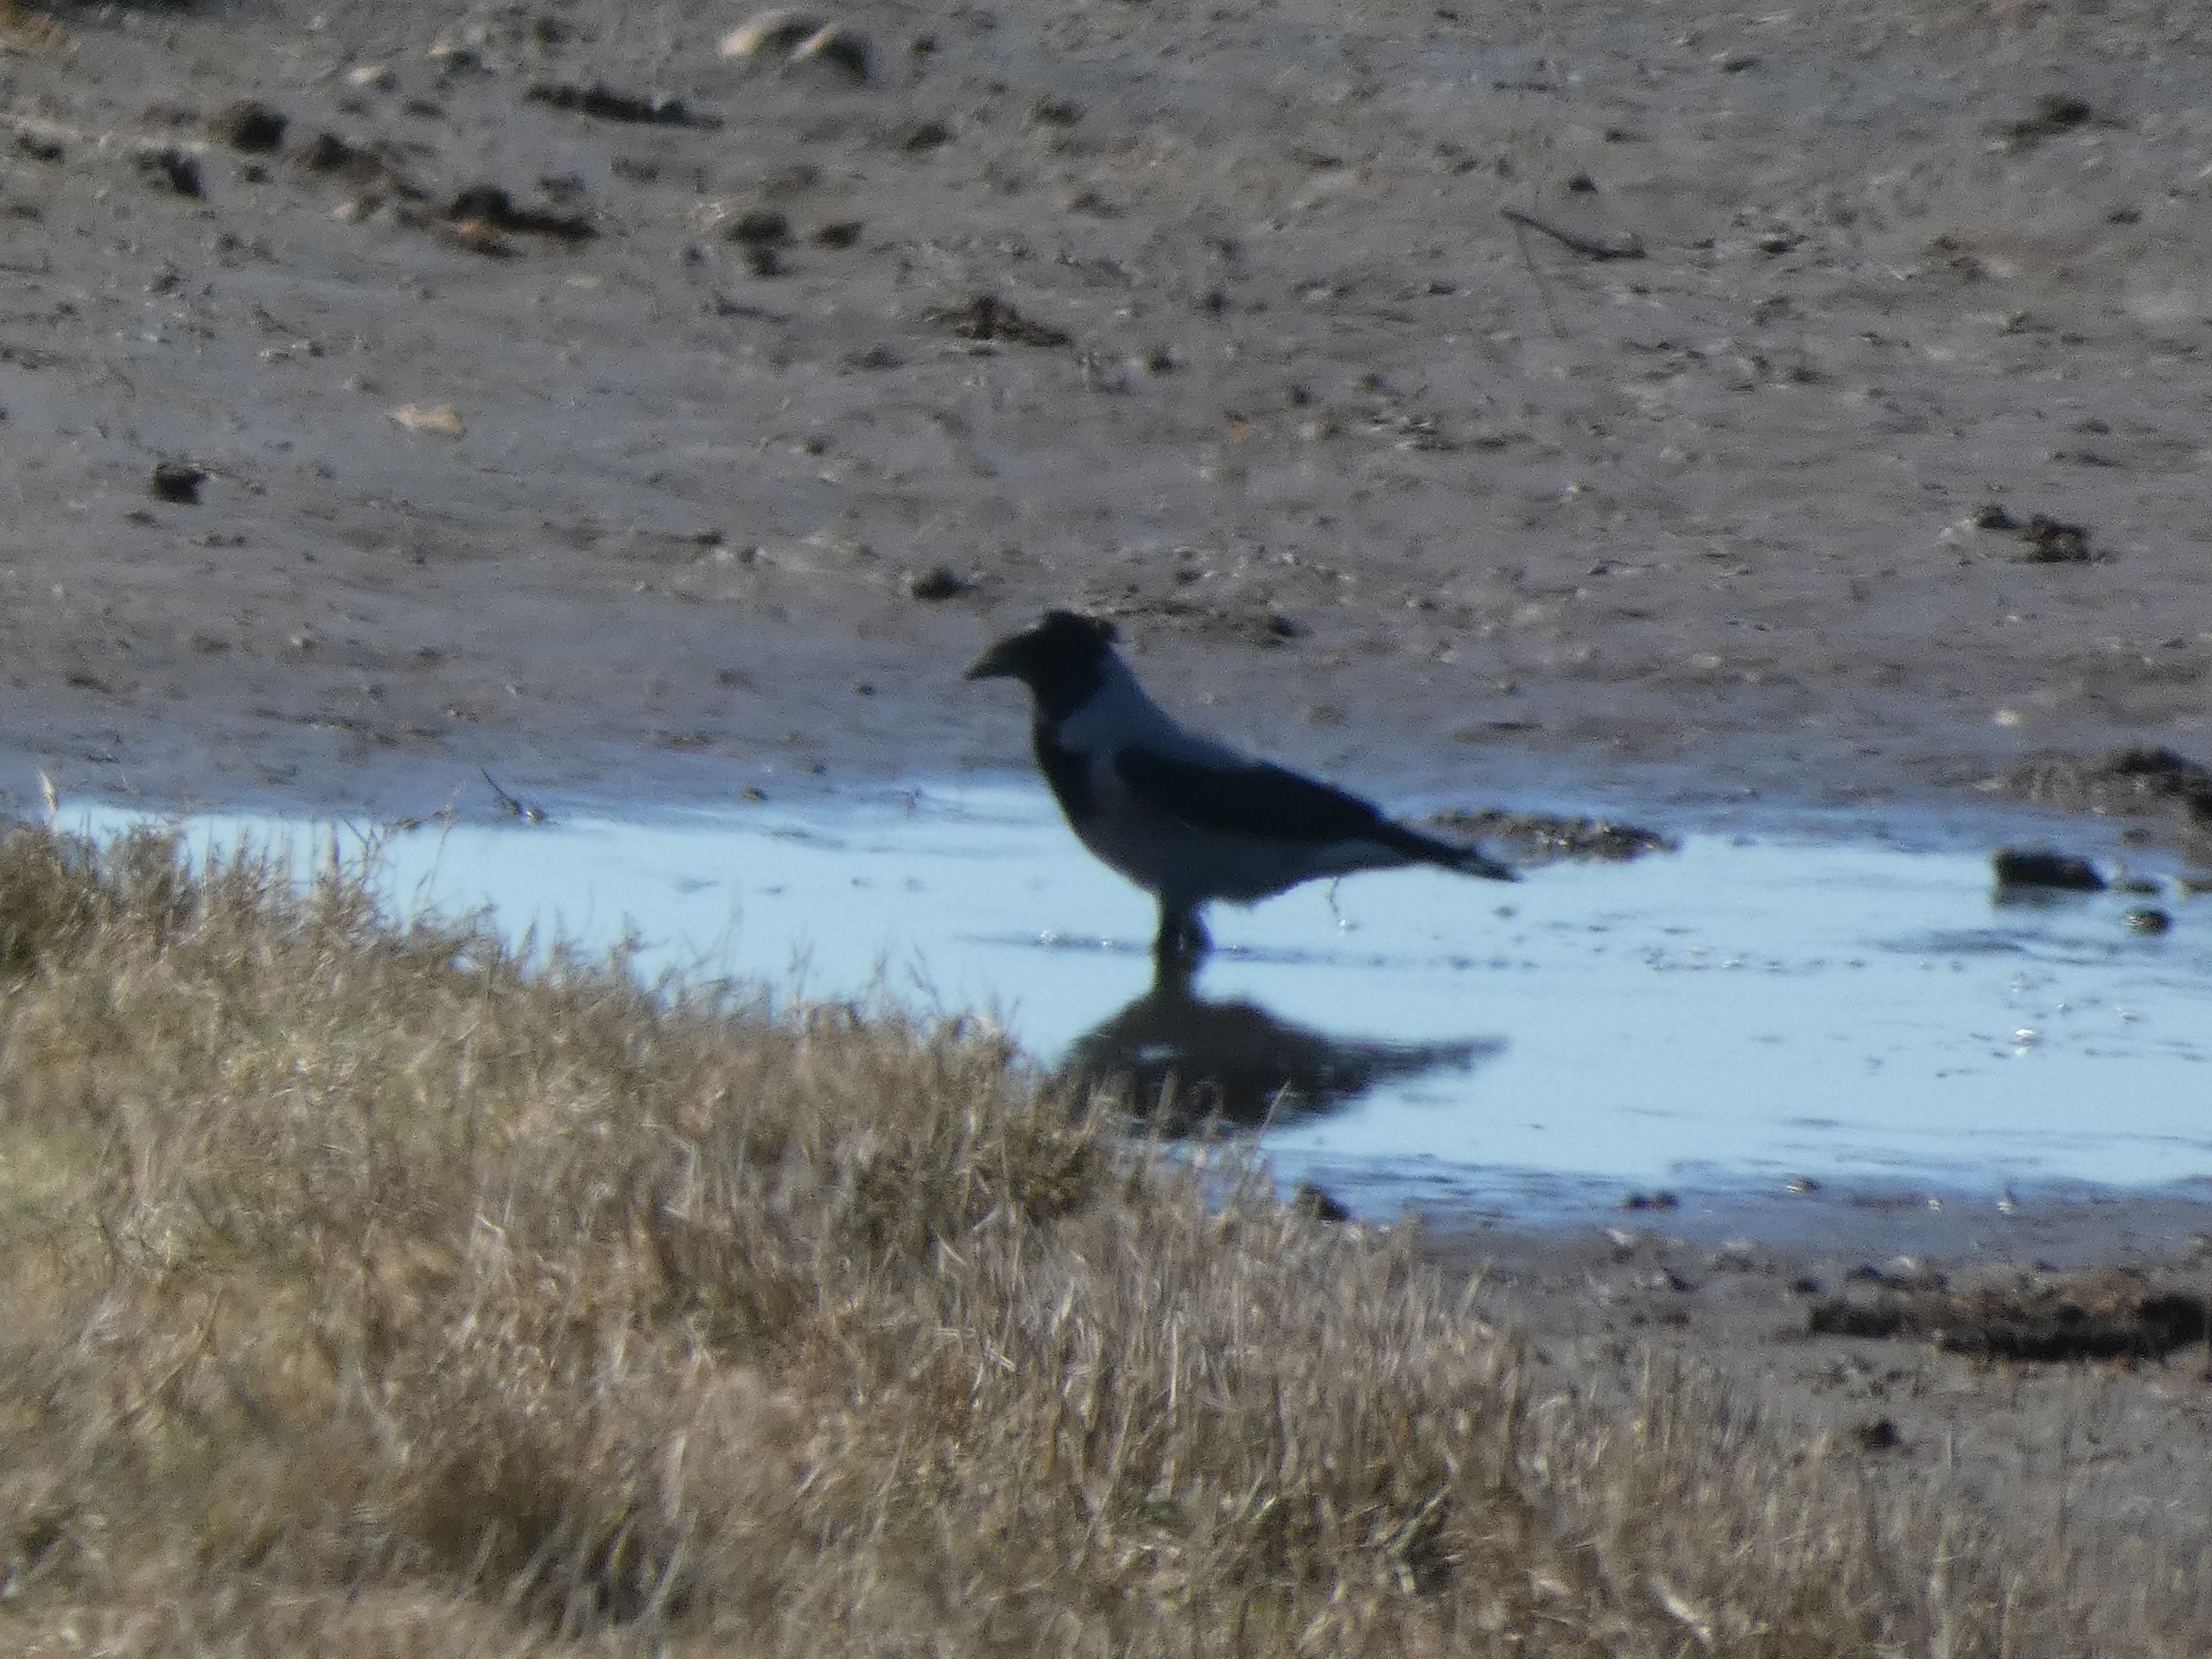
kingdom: Animalia
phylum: Chordata
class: Aves
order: Passeriformes
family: Corvidae
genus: Corvus
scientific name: Corvus cornix
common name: Gråkrage
